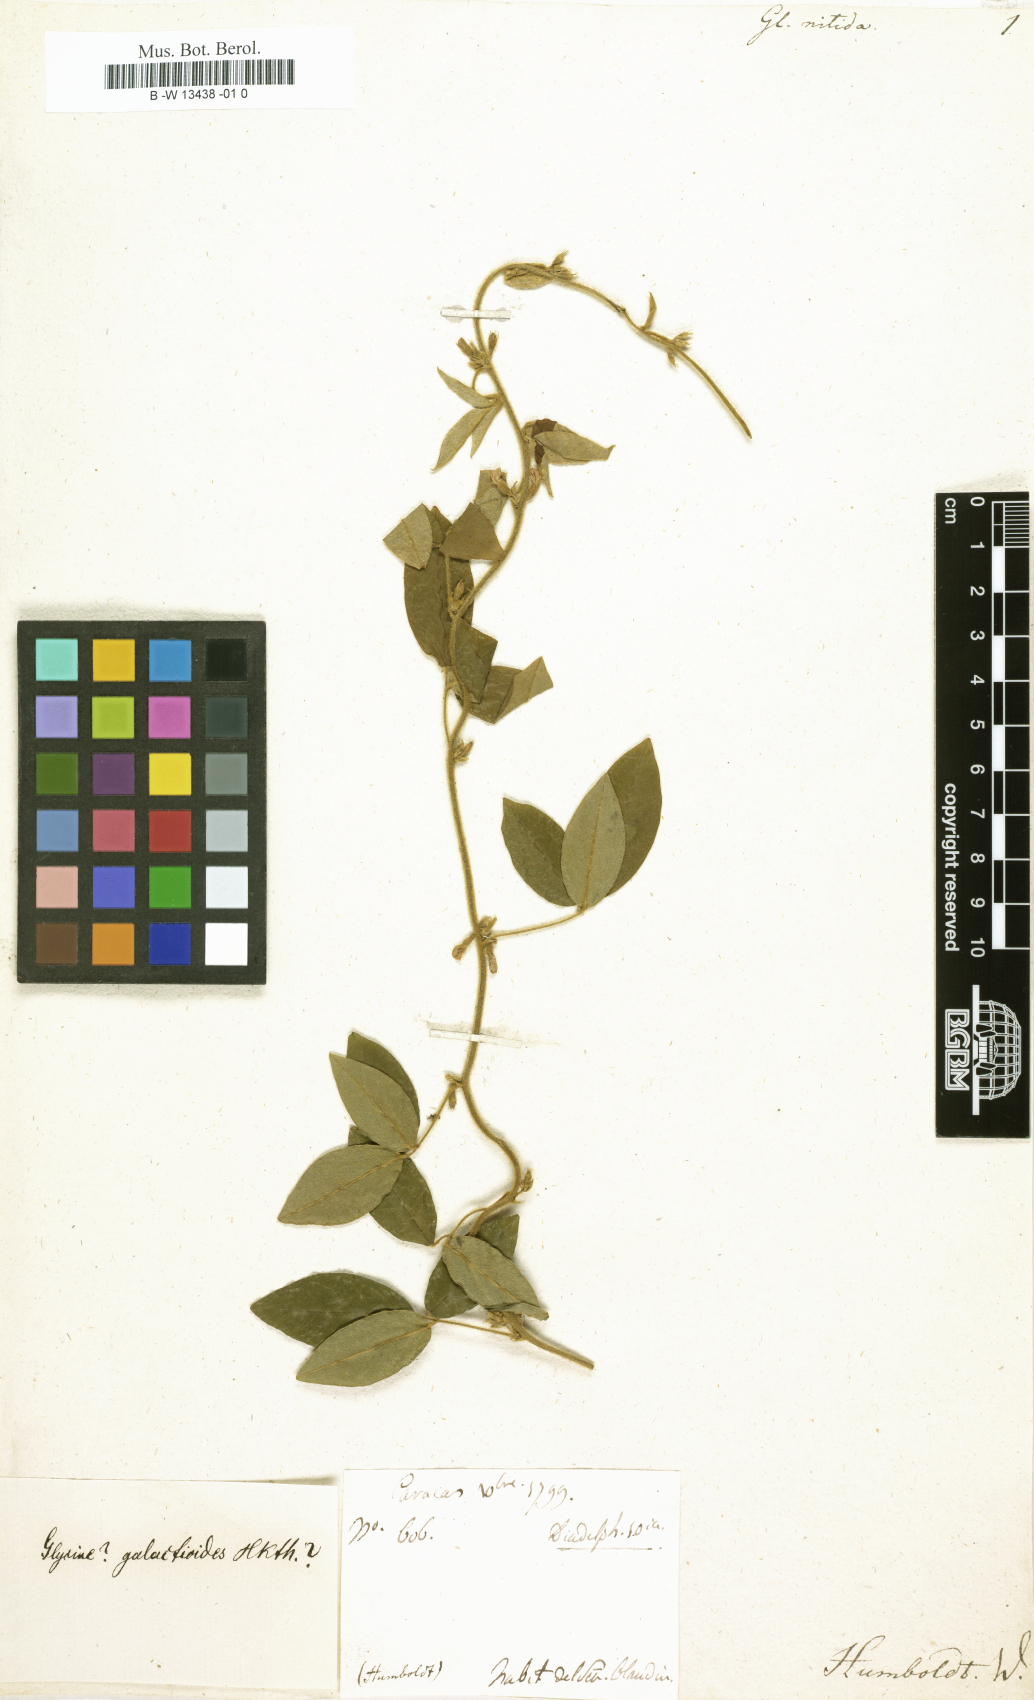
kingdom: Plantae
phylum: Tracheophyta
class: Magnoliopsida
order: Fabales
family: Fabaceae
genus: Glycine
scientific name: Glycine
